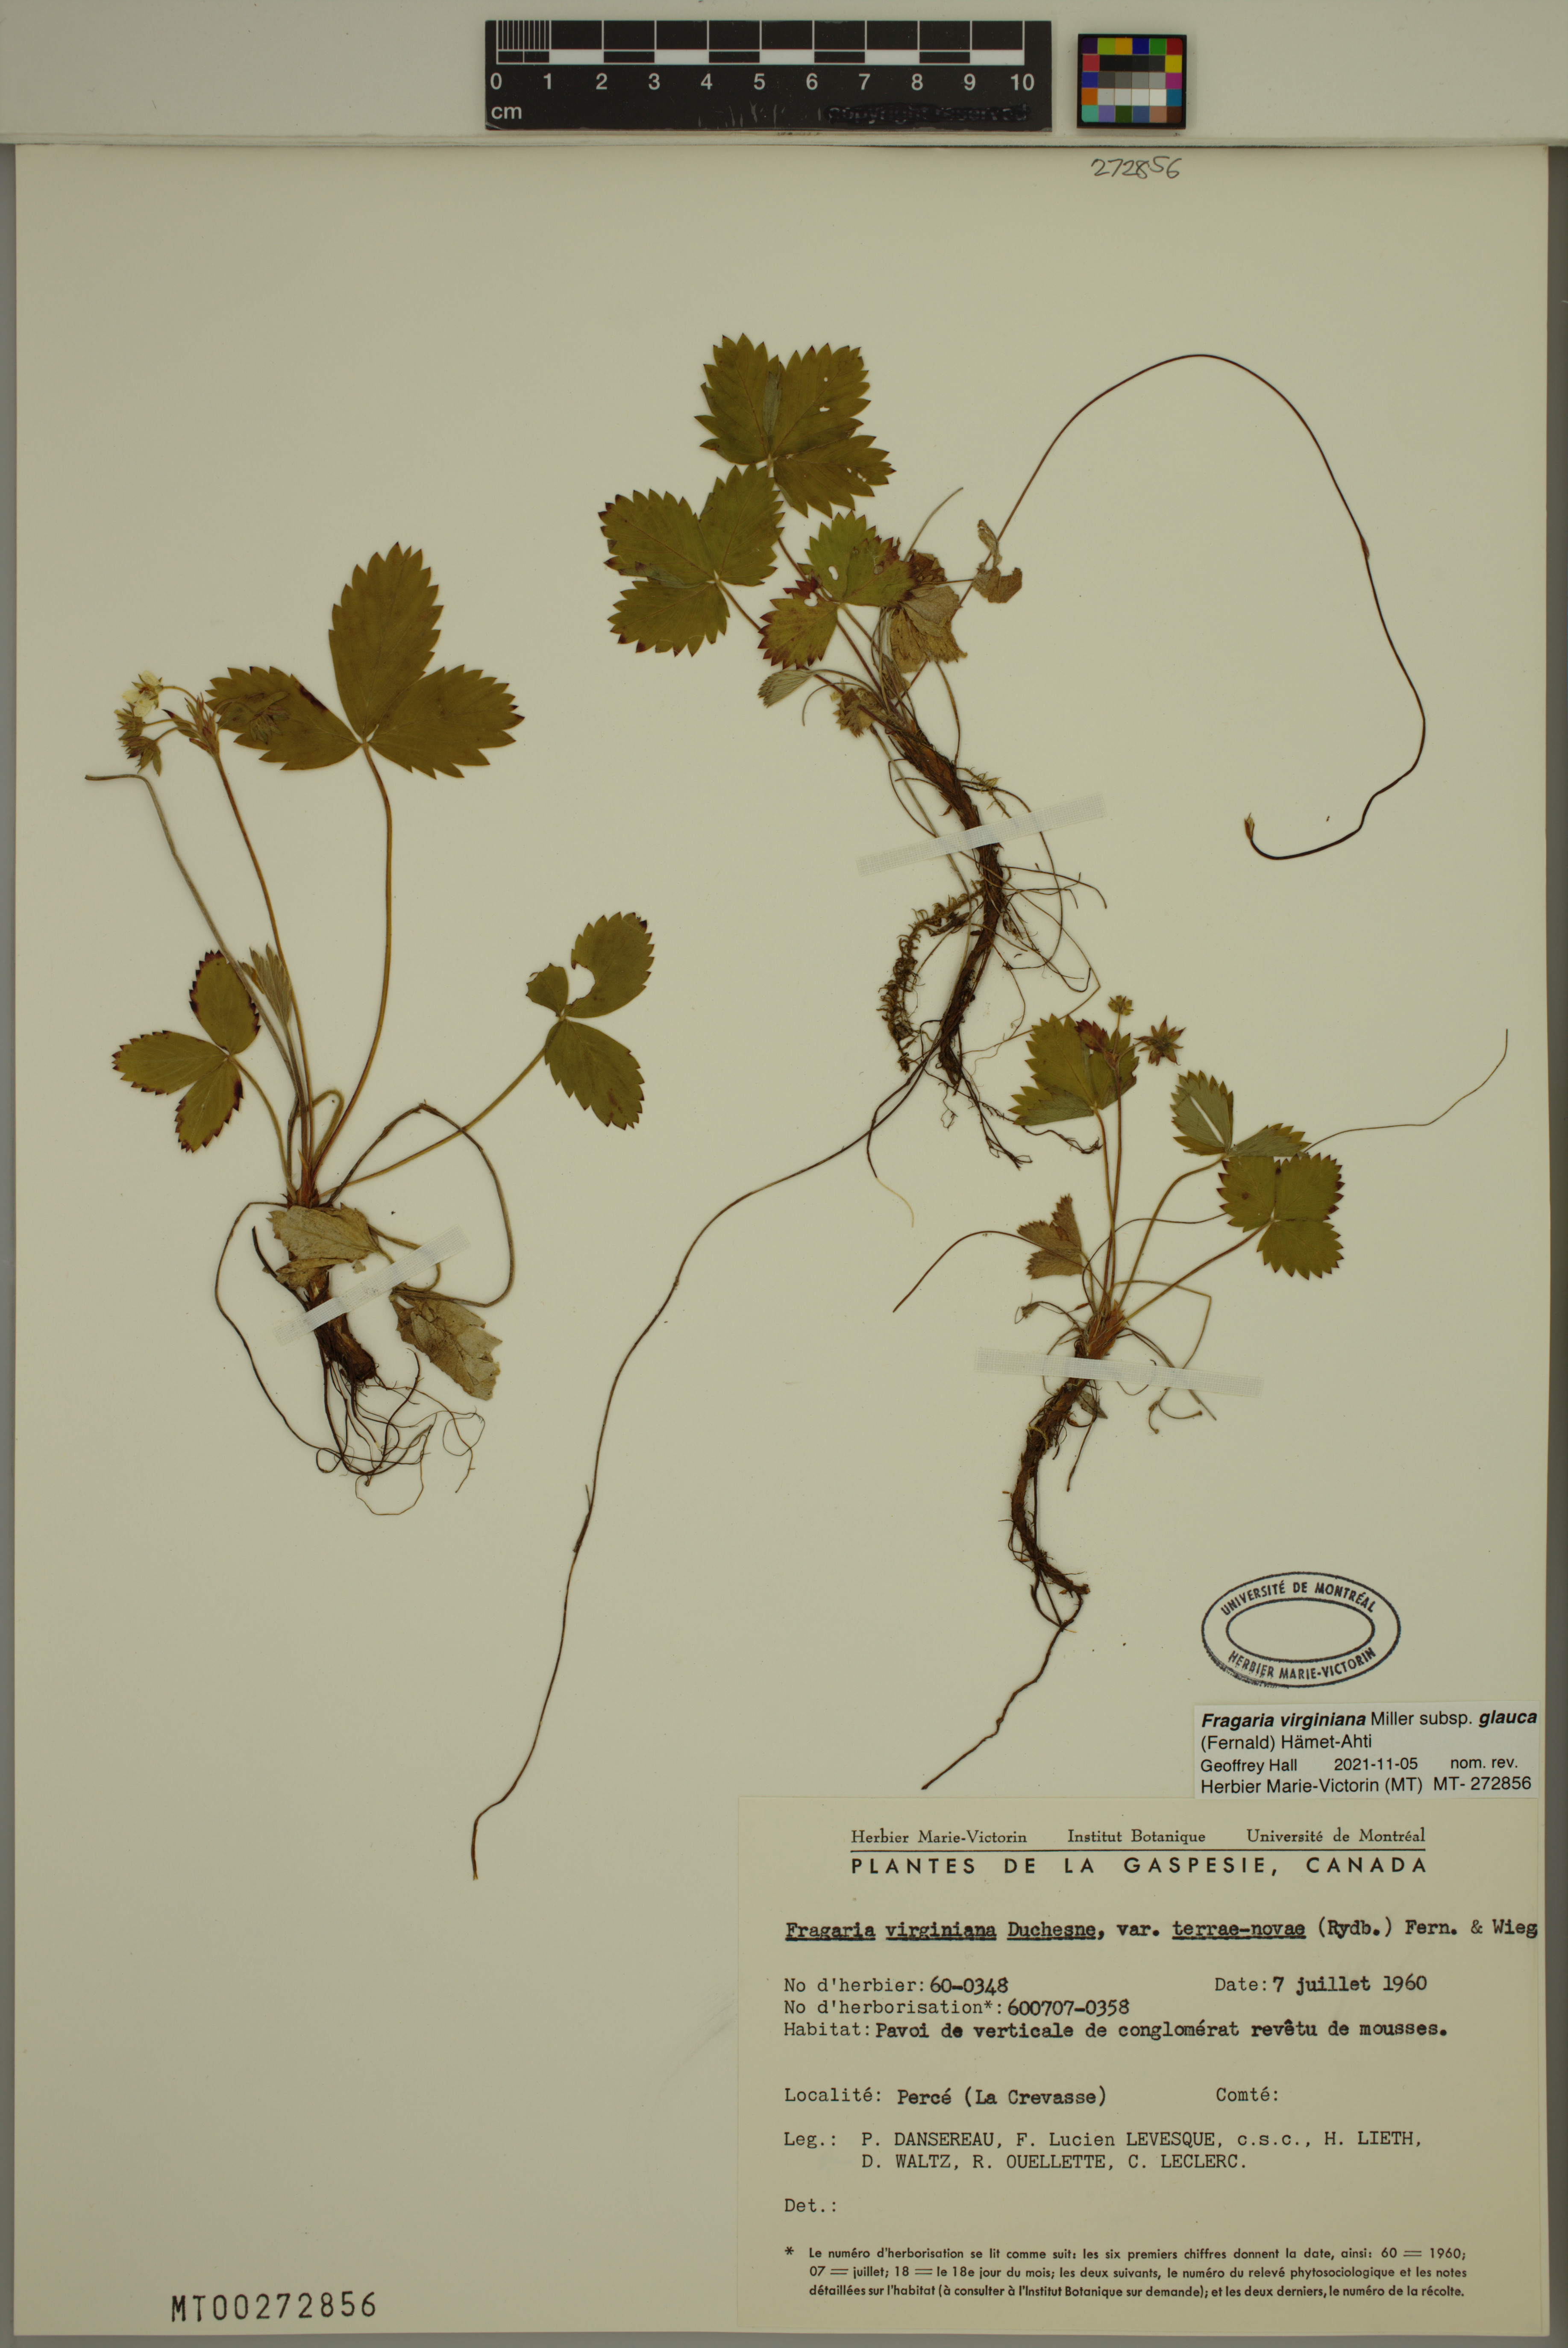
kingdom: Plantae
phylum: Tracheophyta
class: Magnoliopsida
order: Rosales
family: Rosaceae
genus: Fragaria
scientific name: Fragaria virginiana
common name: Thickleaved wild strawberry
